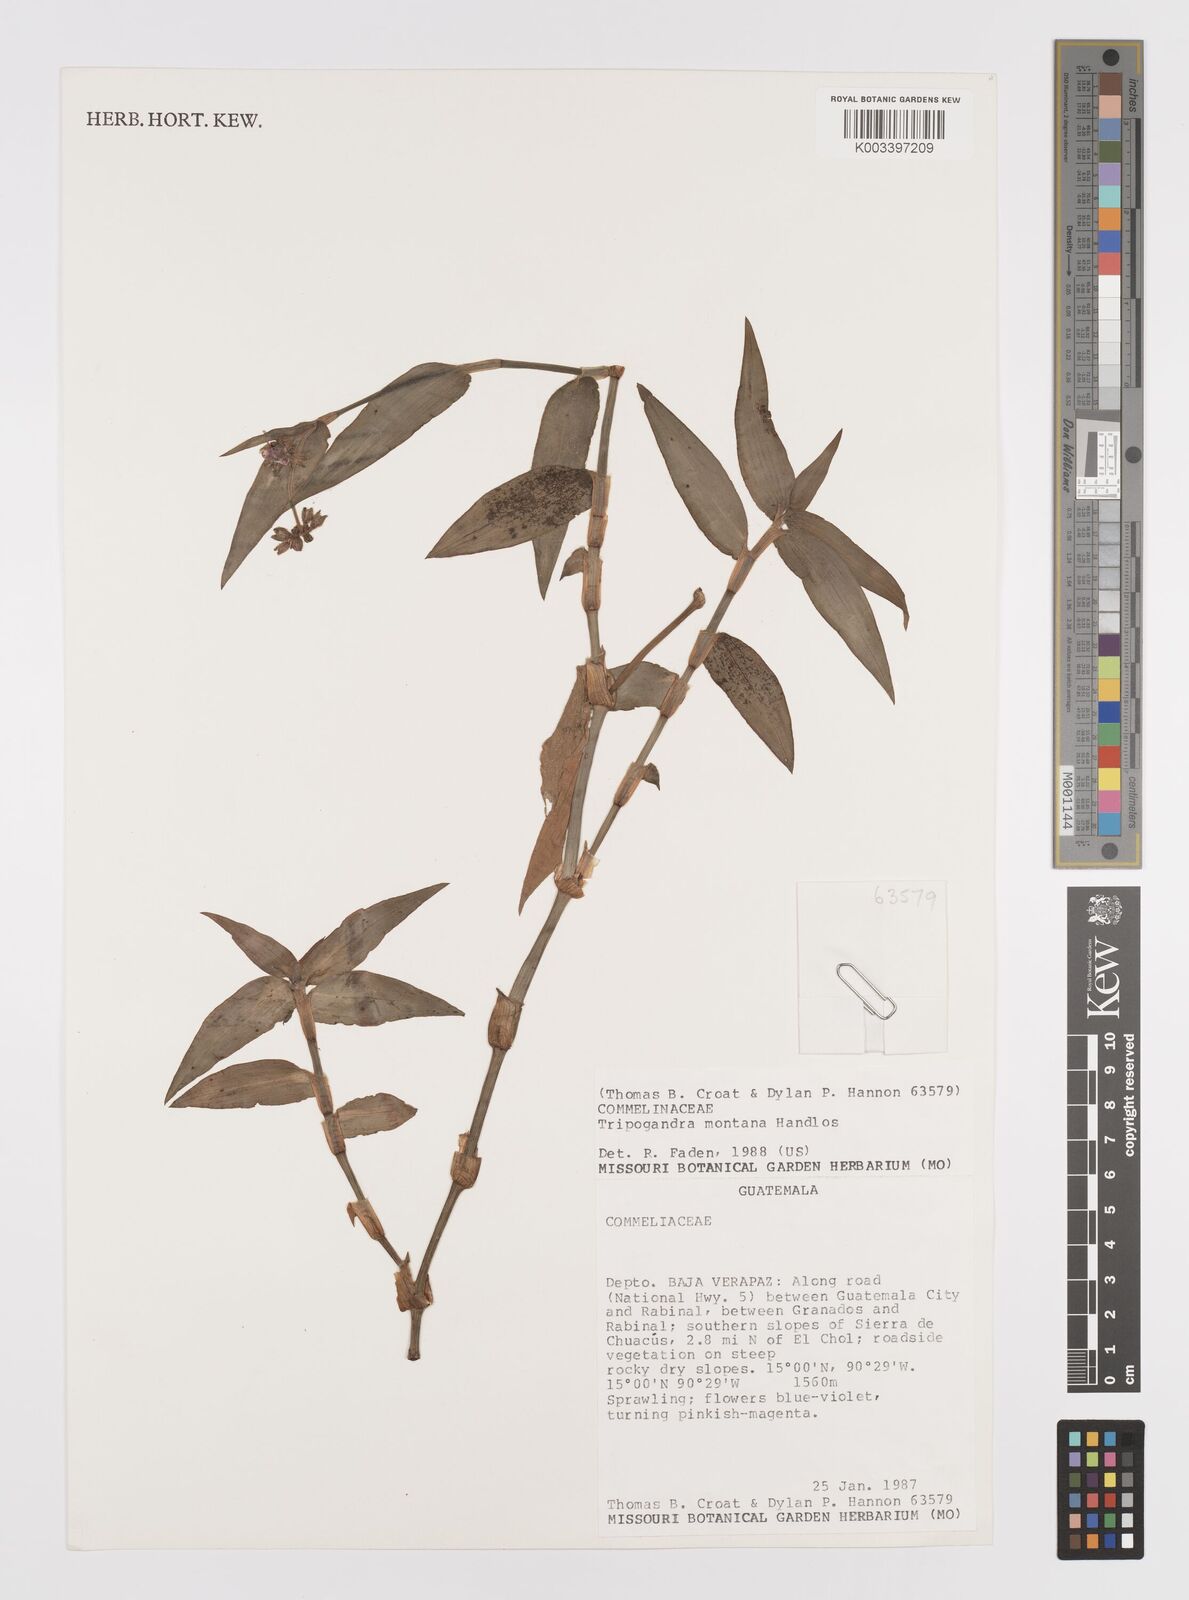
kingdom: Plantae
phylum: Tracheophyta
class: Liliopsida
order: Commelinales
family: Commelinaceae
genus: Callisia
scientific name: Callisia montana
